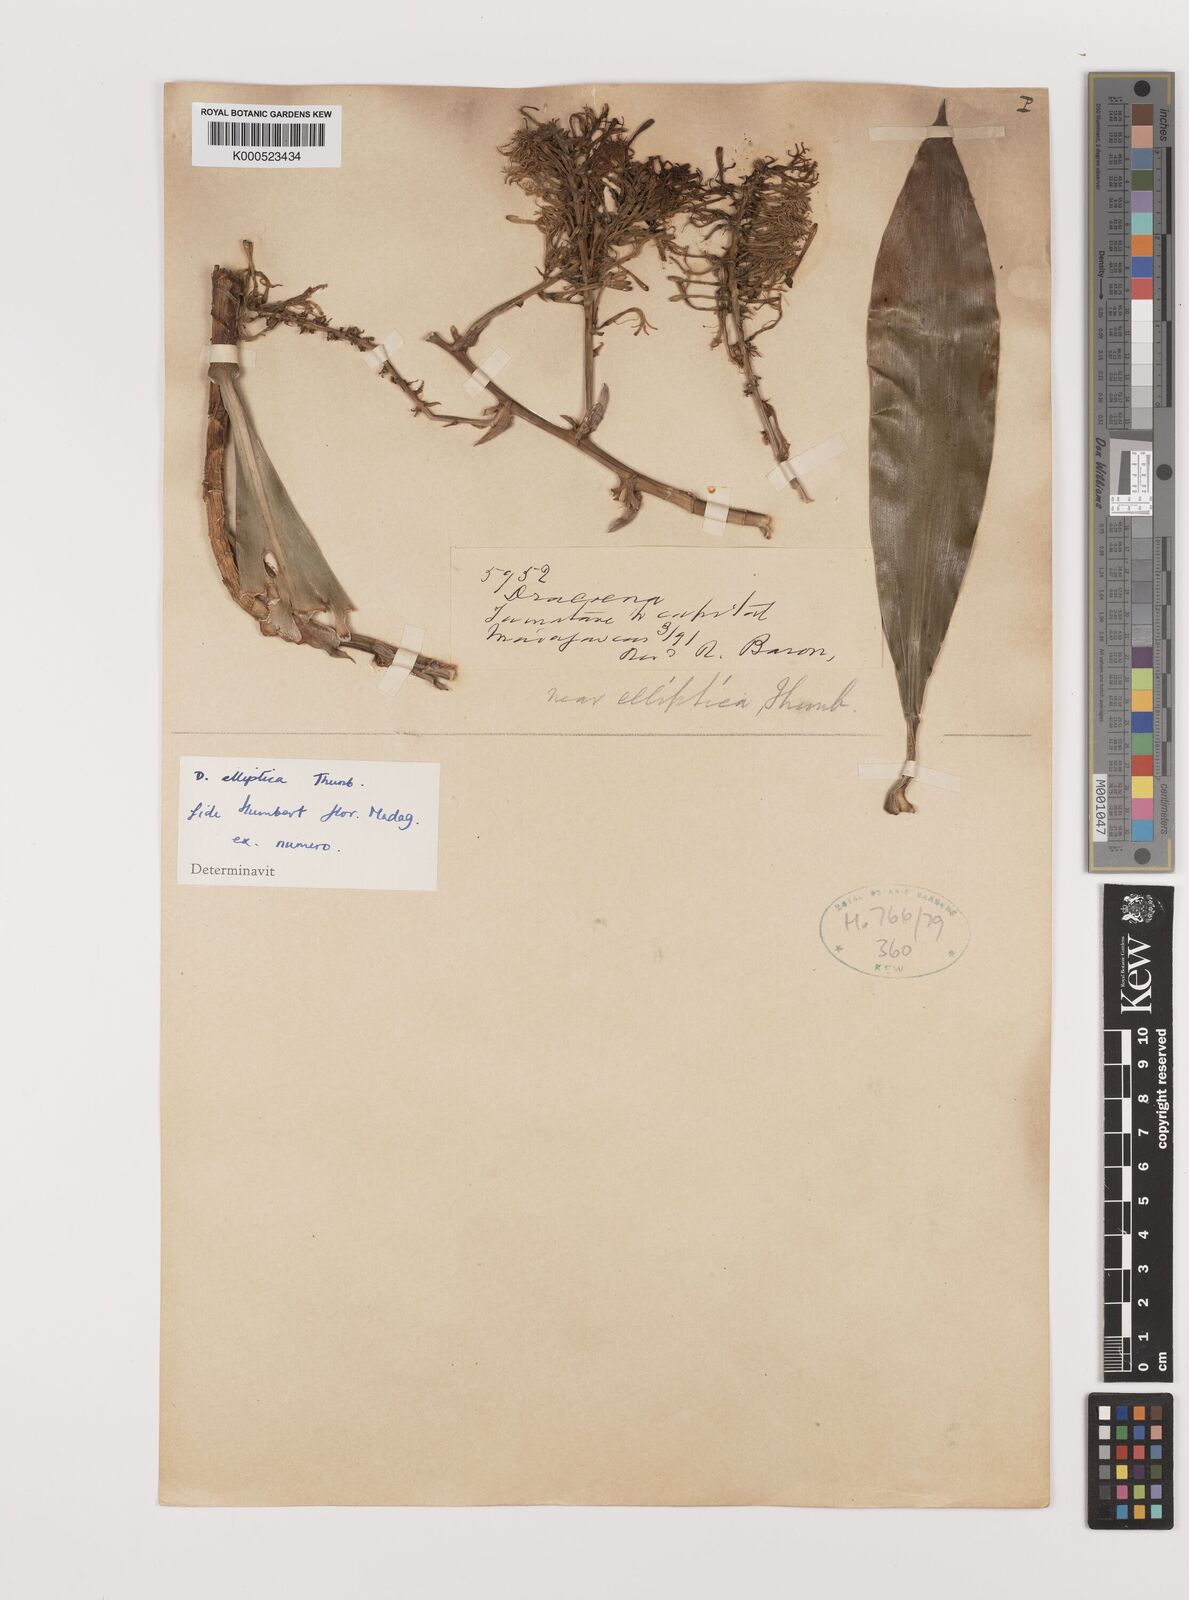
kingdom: Plantae
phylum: Tracheophyta
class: Liliopsida
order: Asparagales
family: Asparagaceae
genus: Dracaena
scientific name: Dracaena elliptica
